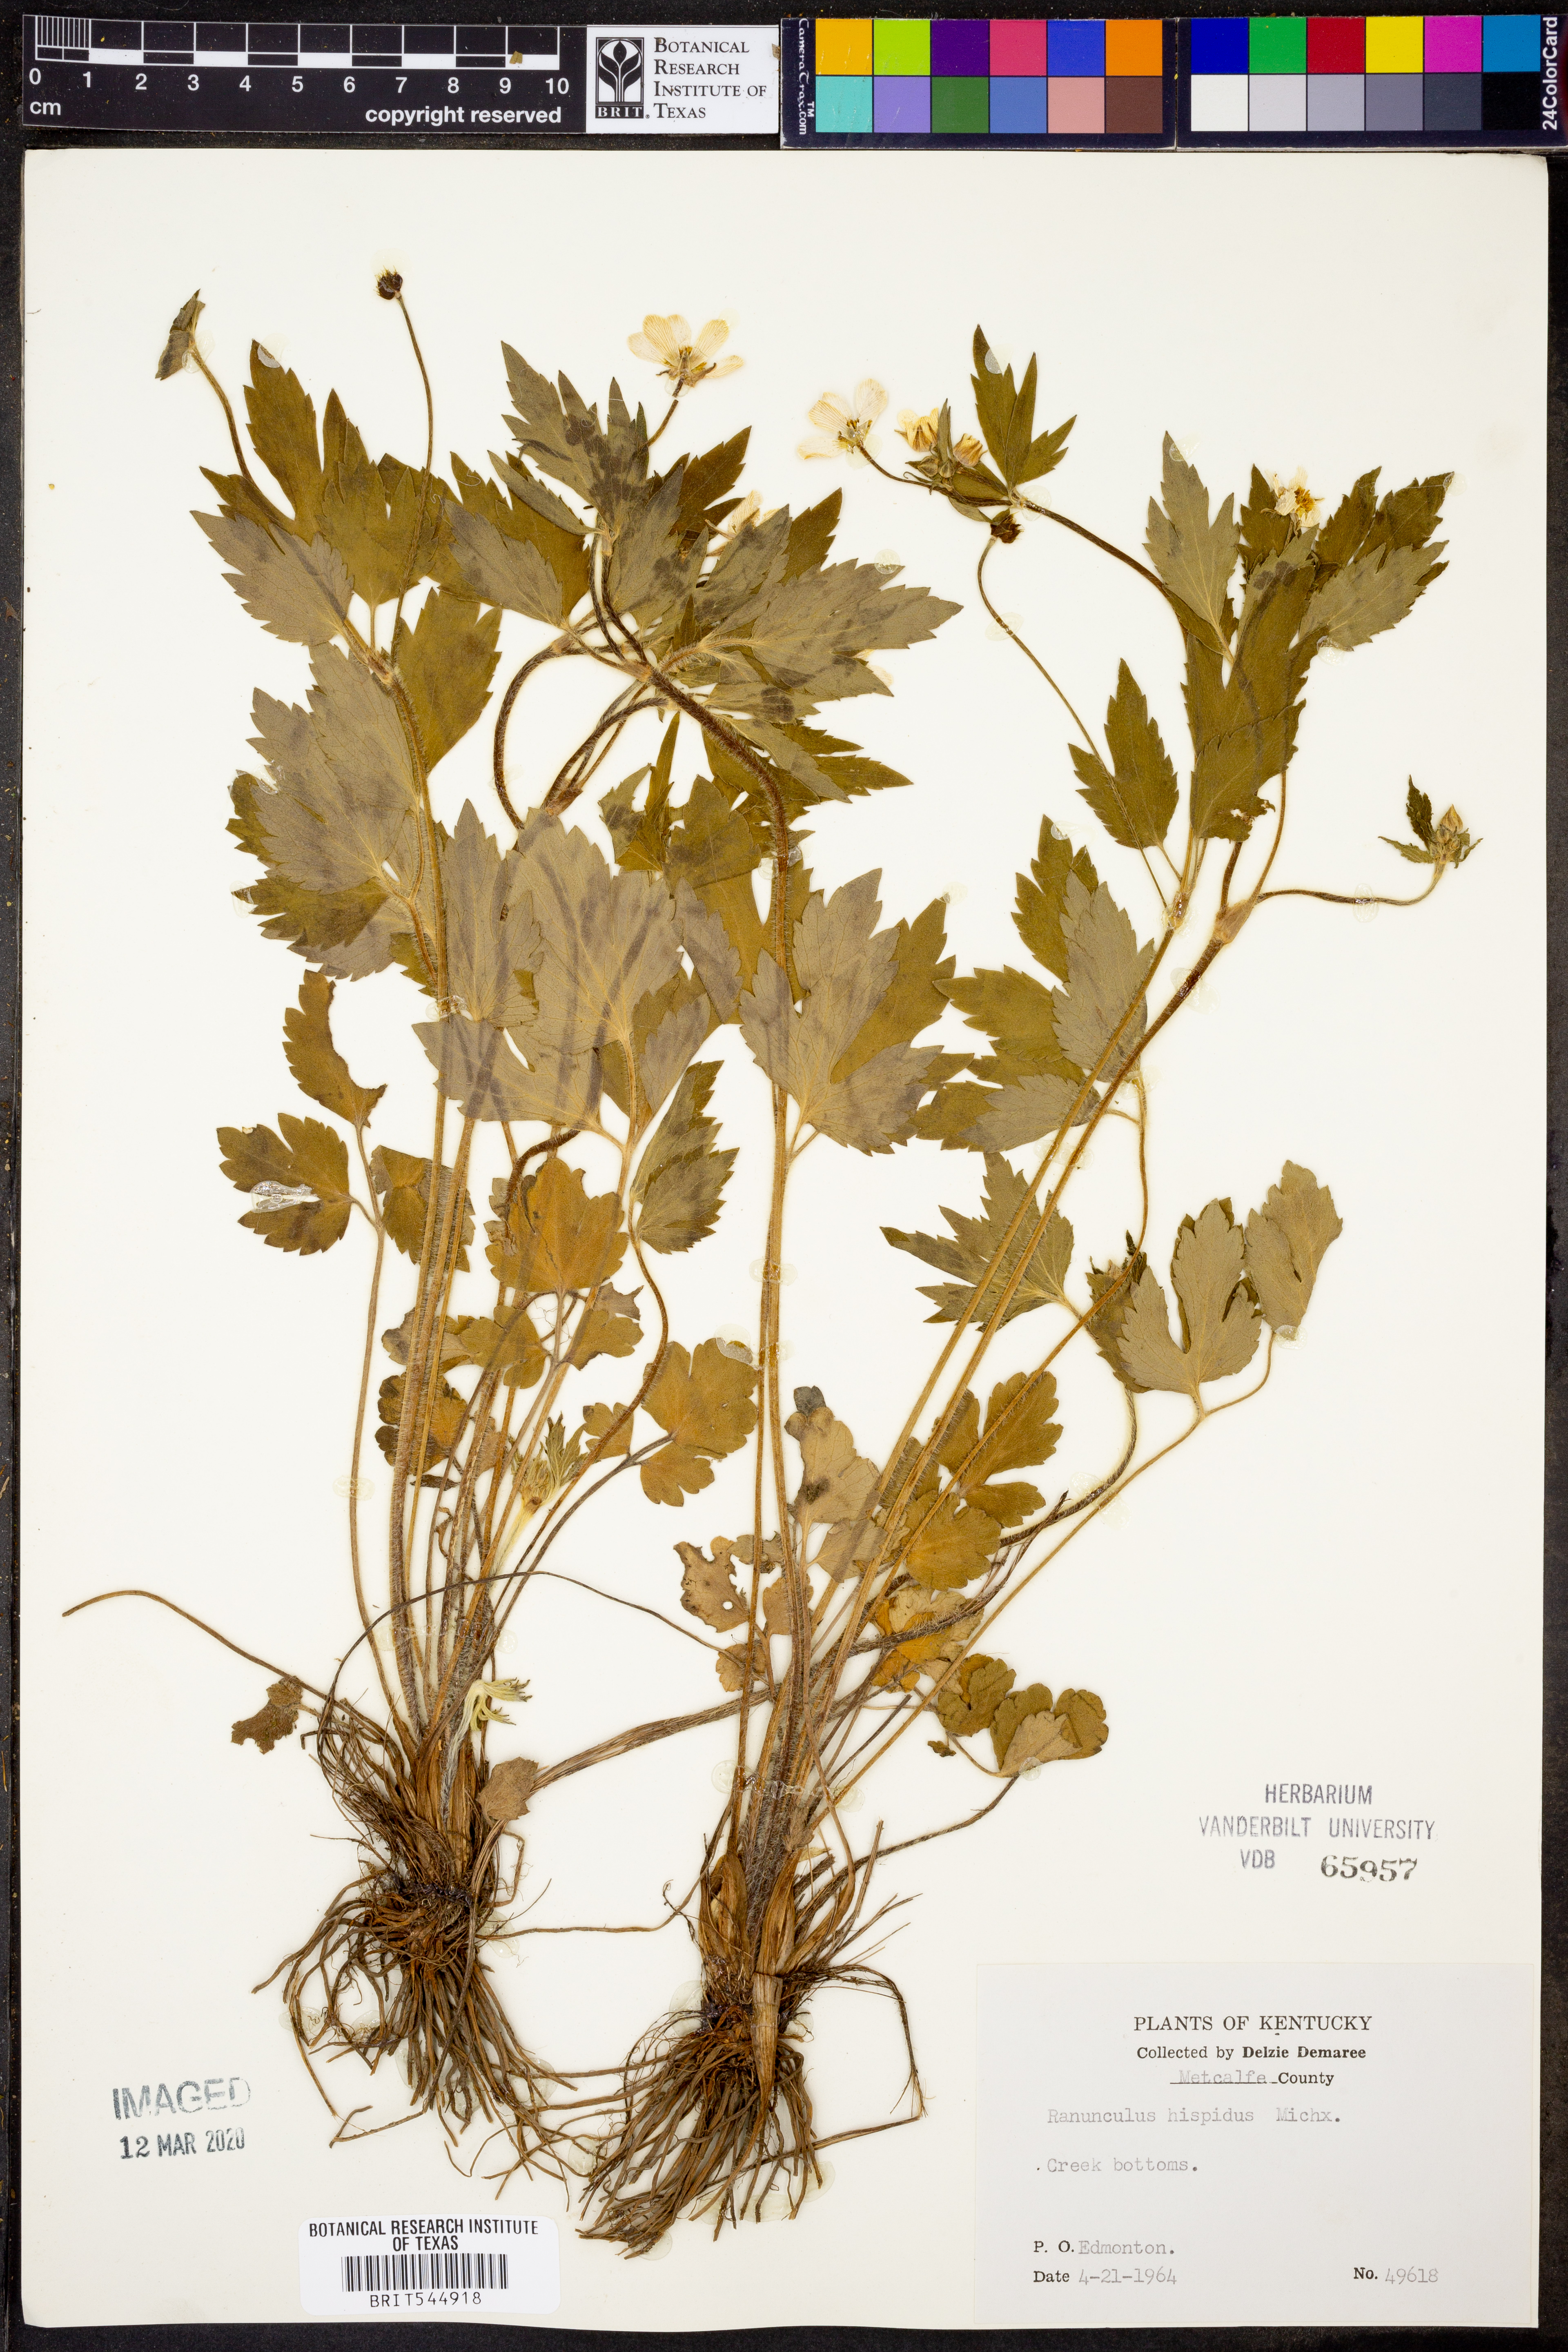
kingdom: Plantae
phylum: Tracheophyta
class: Magnoliopsida
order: Ranunculales
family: Ranunculaceae
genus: Ranunculus
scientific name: Ranunculus hispidus
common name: Bristly buttercup
